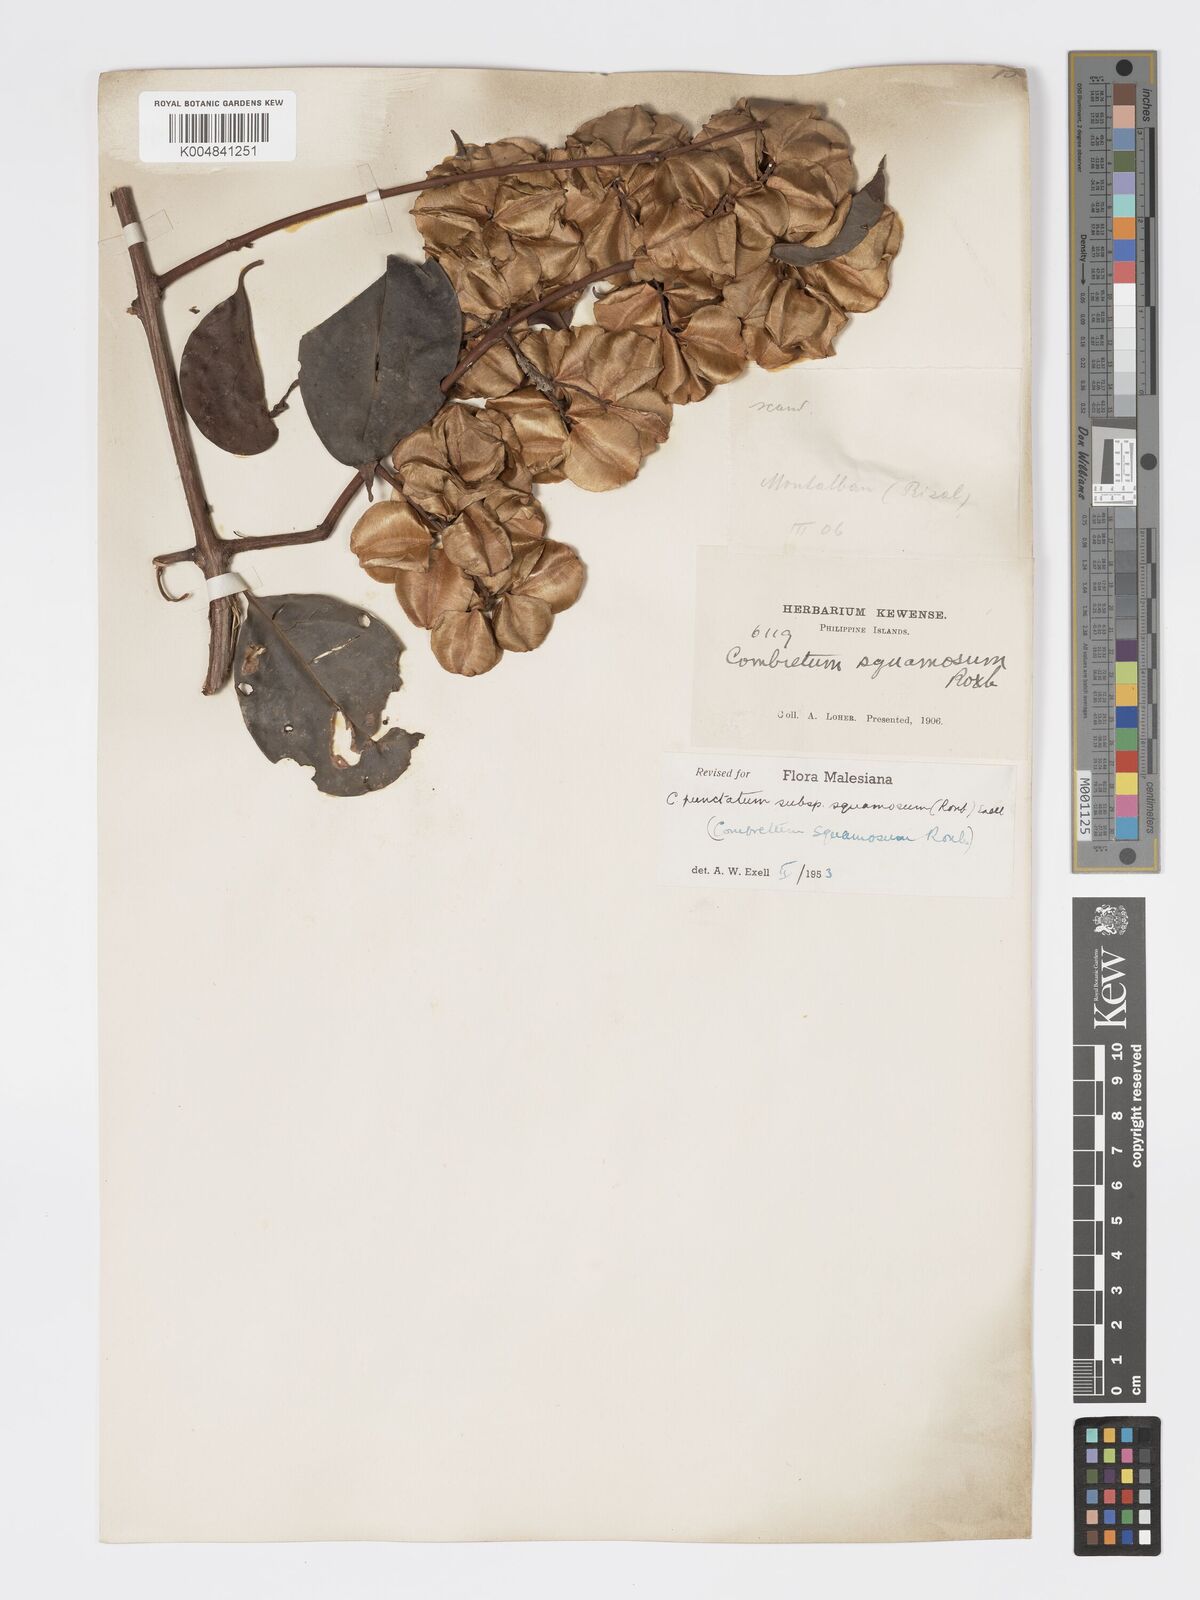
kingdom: Plantae
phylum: Tracheophyta
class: Magnoliopsida
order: Myrtales
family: Combretaceae
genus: Combretum
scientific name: Combretum
